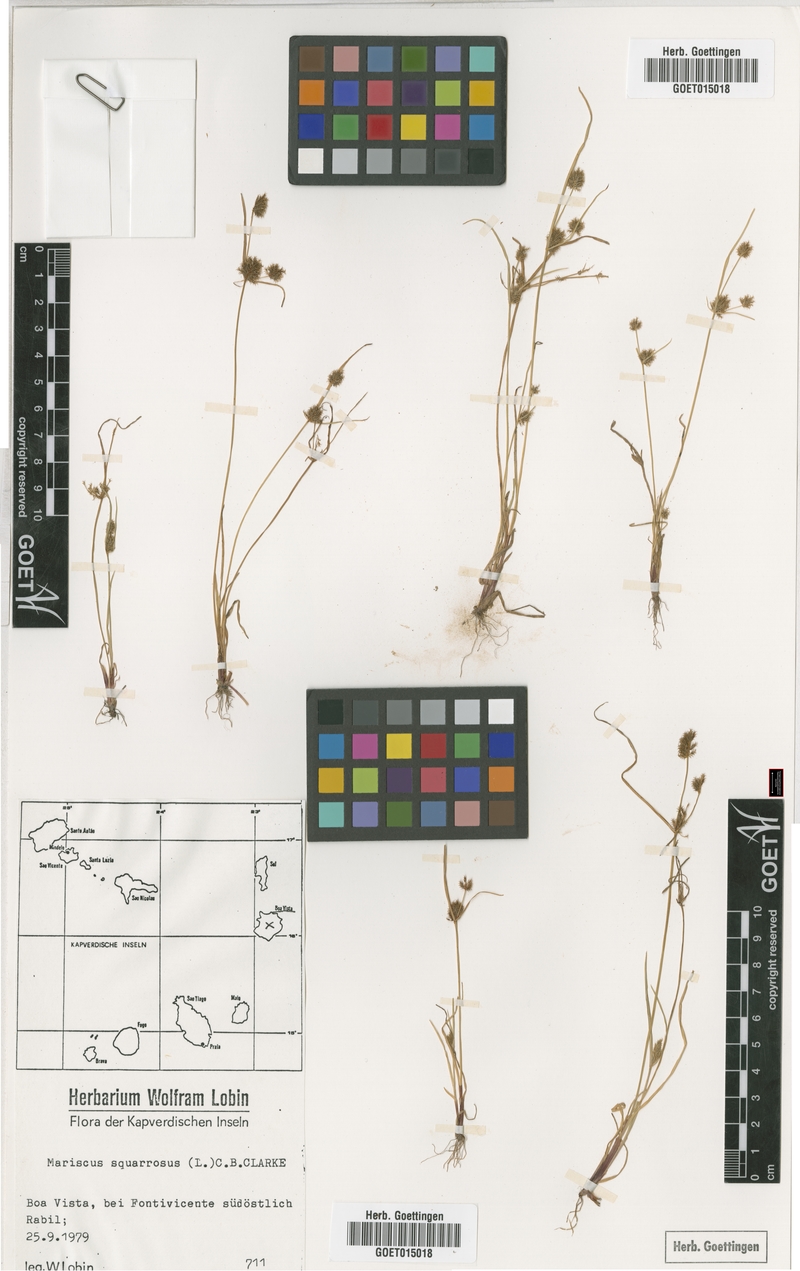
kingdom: Plantae
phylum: Tracheophyta
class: Liliopsida
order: Poales
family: Cyperaceae
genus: Cyperus
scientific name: Cyperus squarrosus
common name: Awned cyperus
